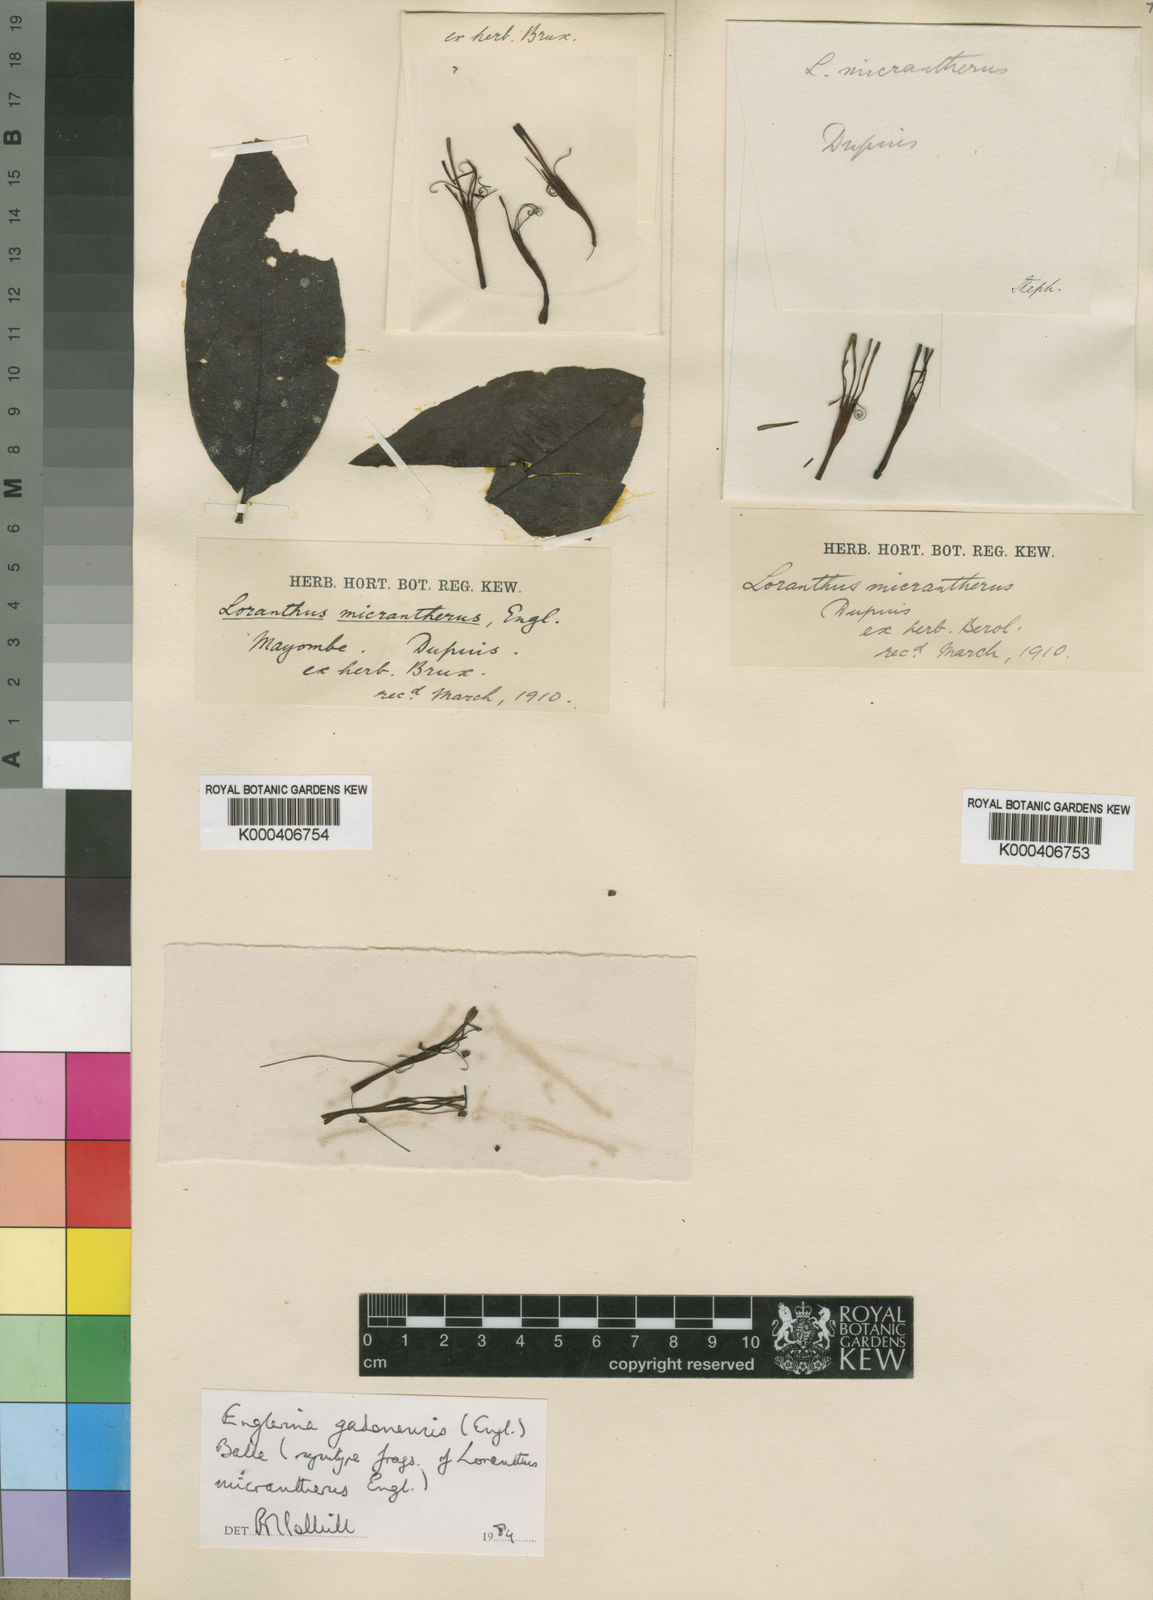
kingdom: Plantae
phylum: Tracheophyta
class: Magnoliopsida
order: Santalales
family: Loranthaceae
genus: Englerina
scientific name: Englerina gabonensis
